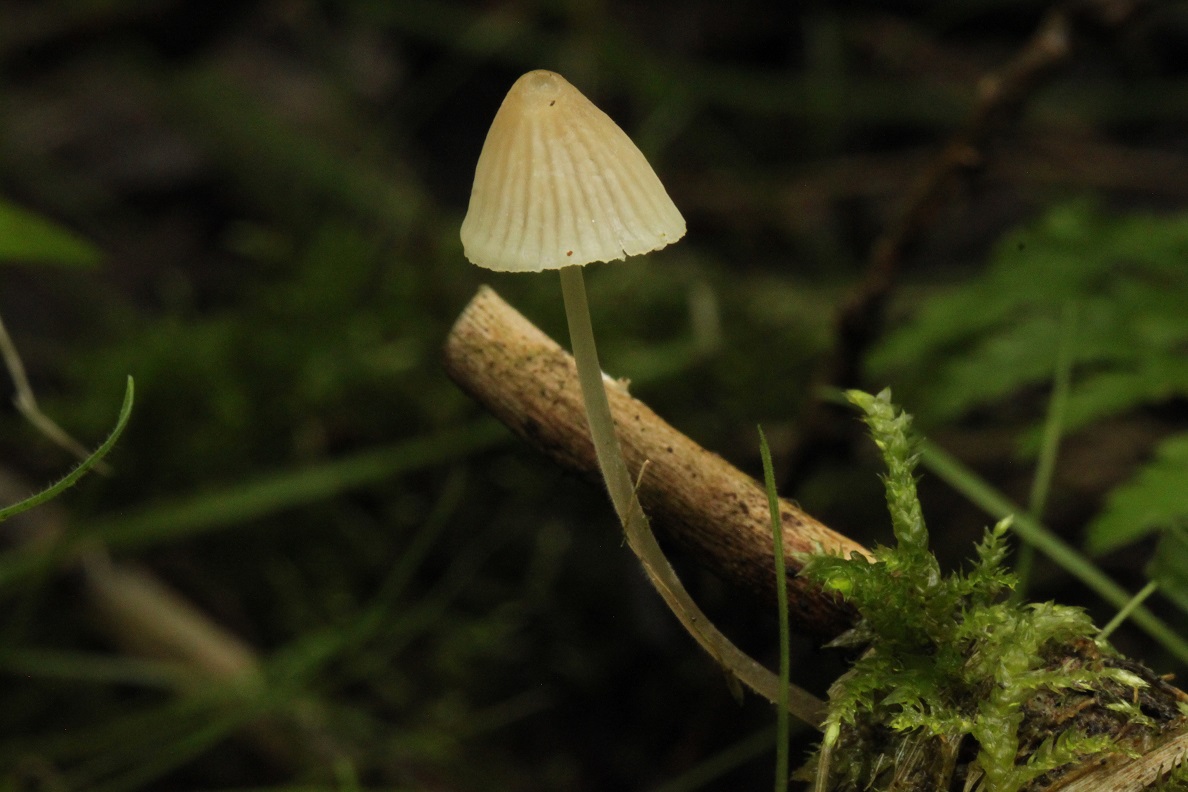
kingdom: Fungi
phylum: Basidiomycota
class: Agaricomycetes
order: Agaricales
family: Mycenaceae
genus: Mycena
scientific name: Mycena citrinomarginata
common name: gulægget huesvamp
